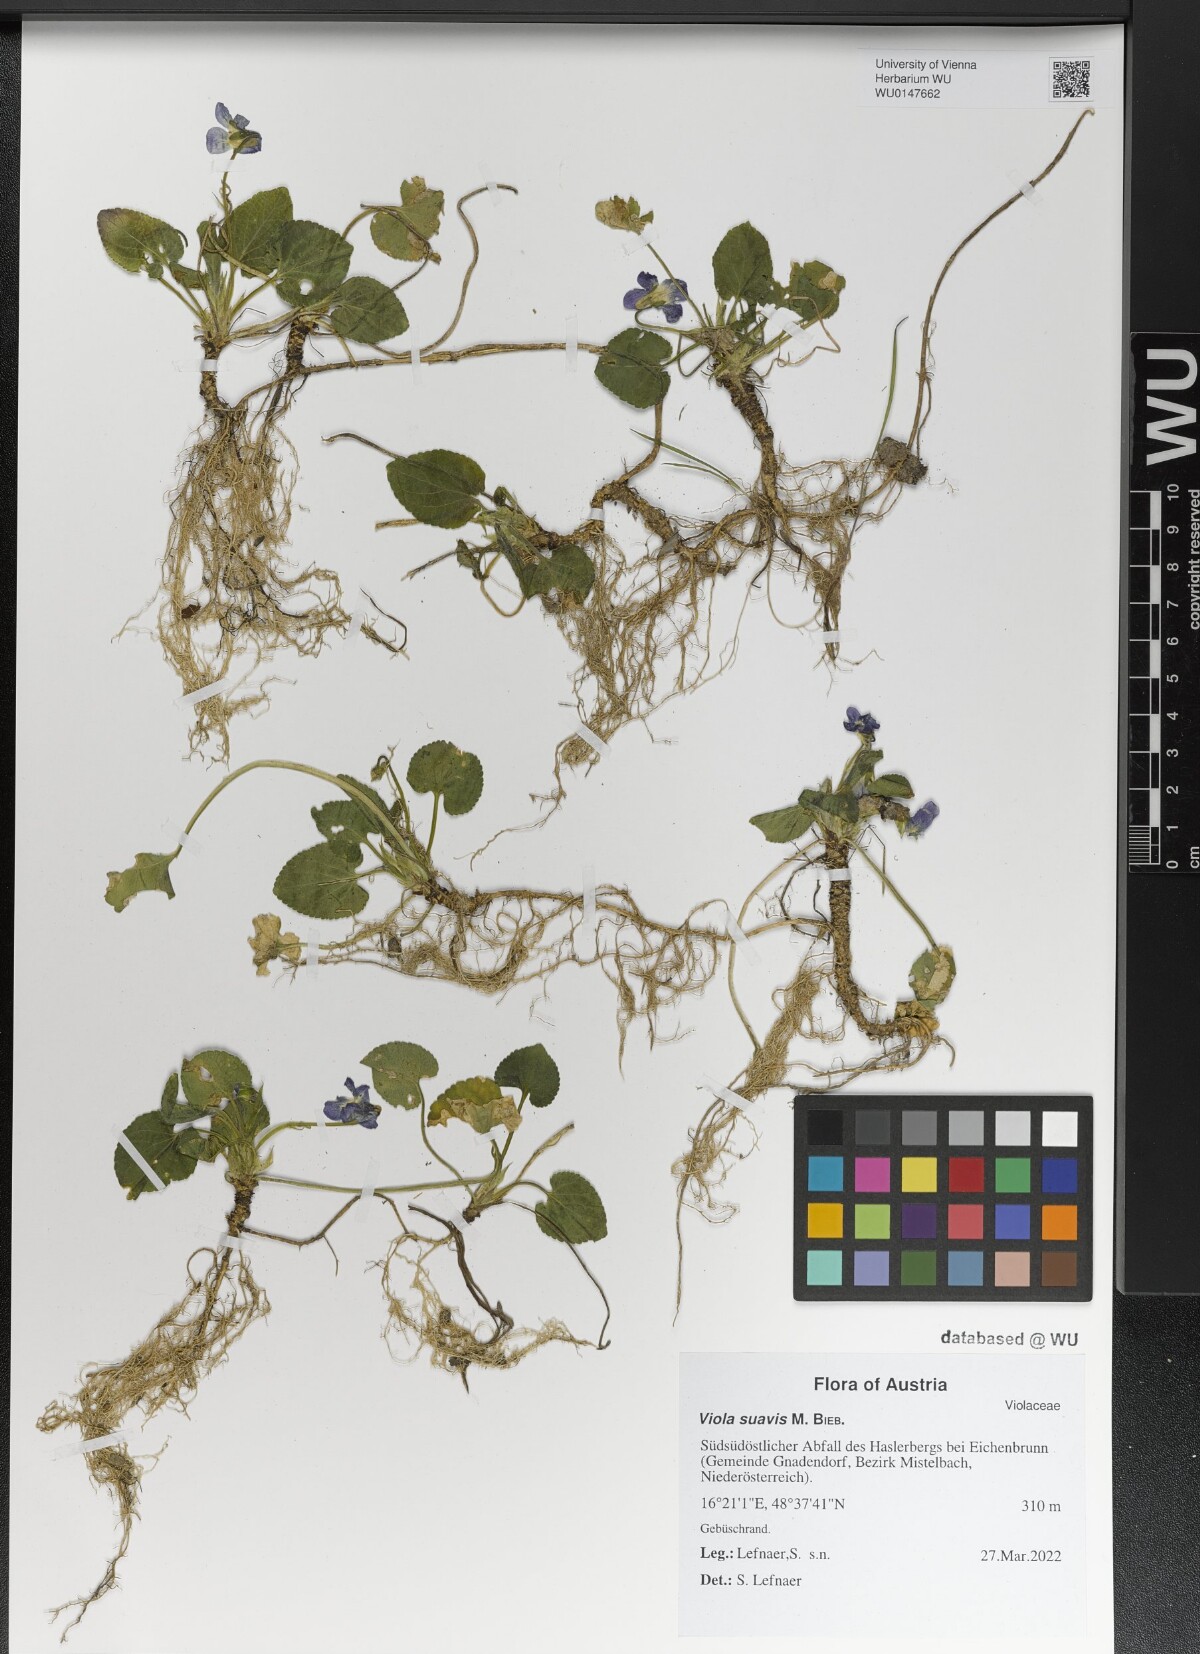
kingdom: Plantae
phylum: Tracheophyta
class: Magnoliopsida
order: Malpighiales
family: Violaceae
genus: Viola
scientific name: Viola suavis
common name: Russian violet
